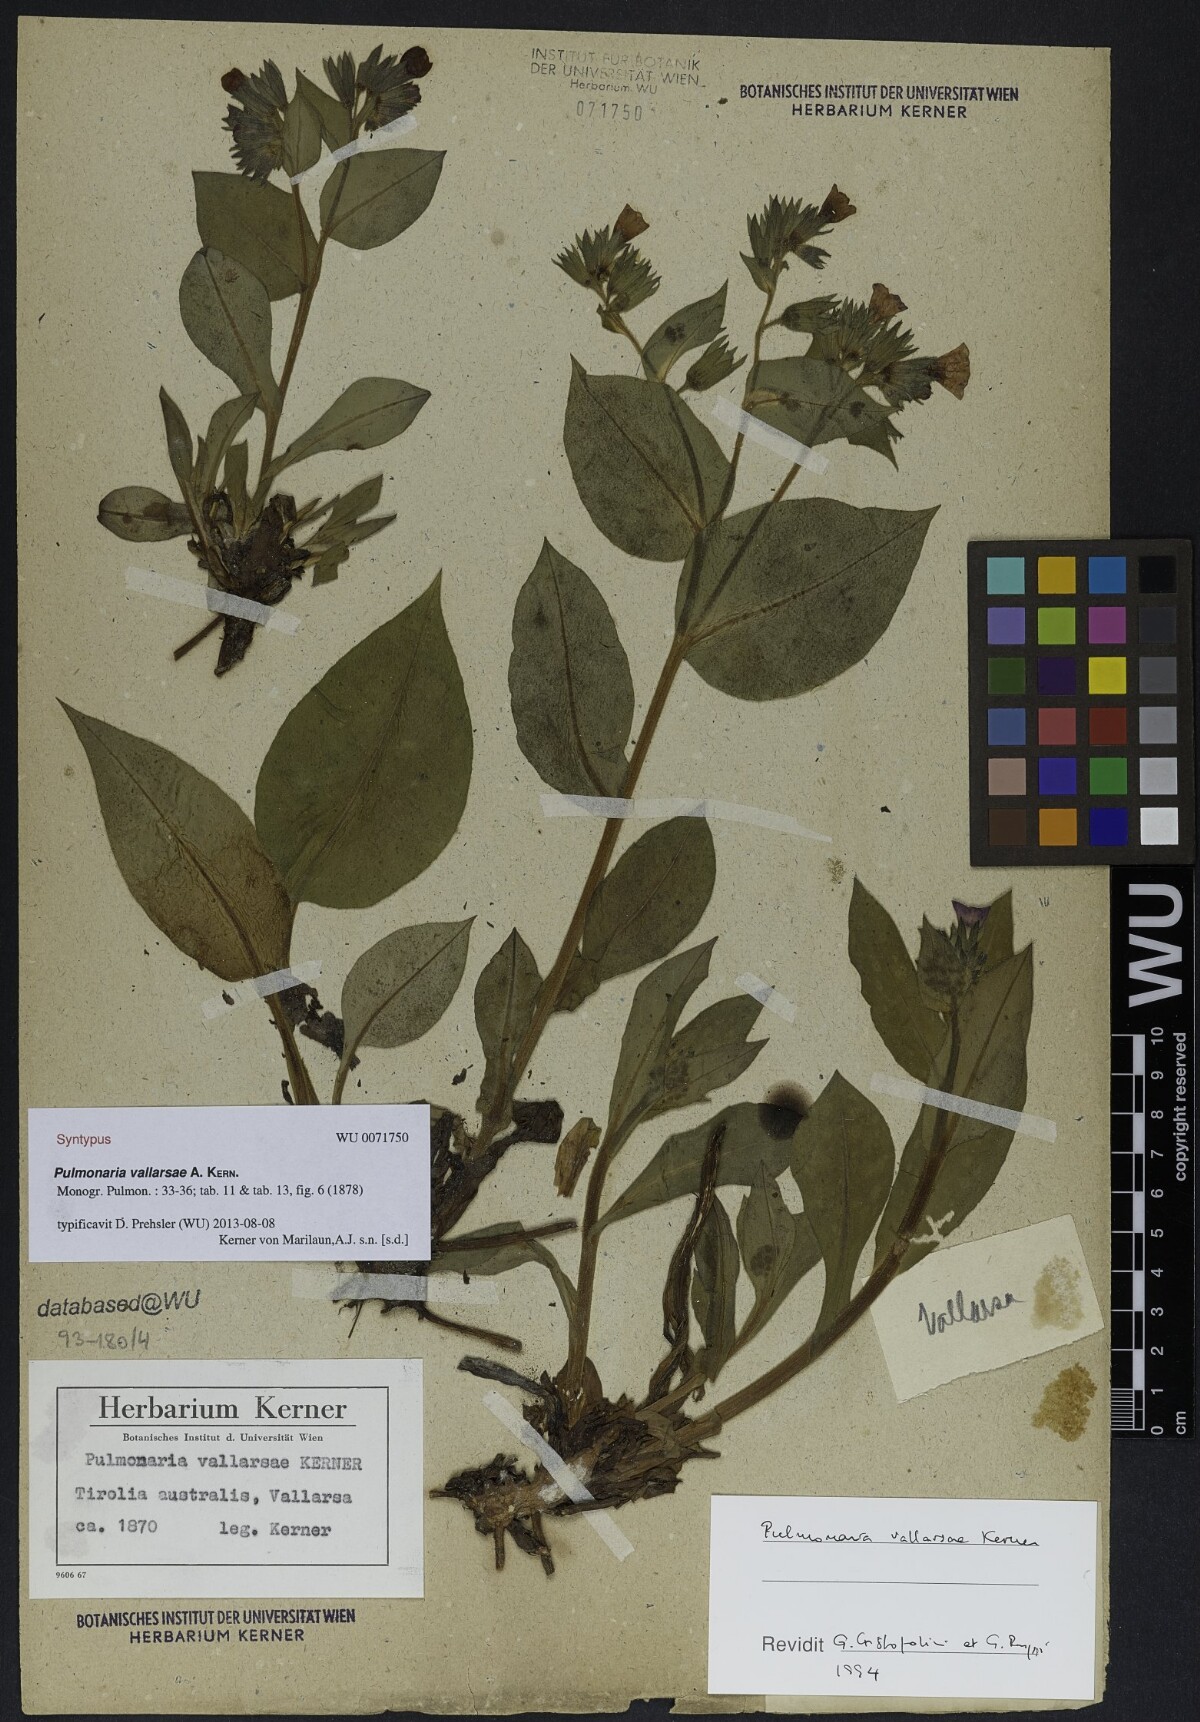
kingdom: Plantae
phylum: Tracheophyta
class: Magnoliopsida
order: Boraginales
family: Boraginaceae
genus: Pulmonaria
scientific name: Pulmonaria hirta
